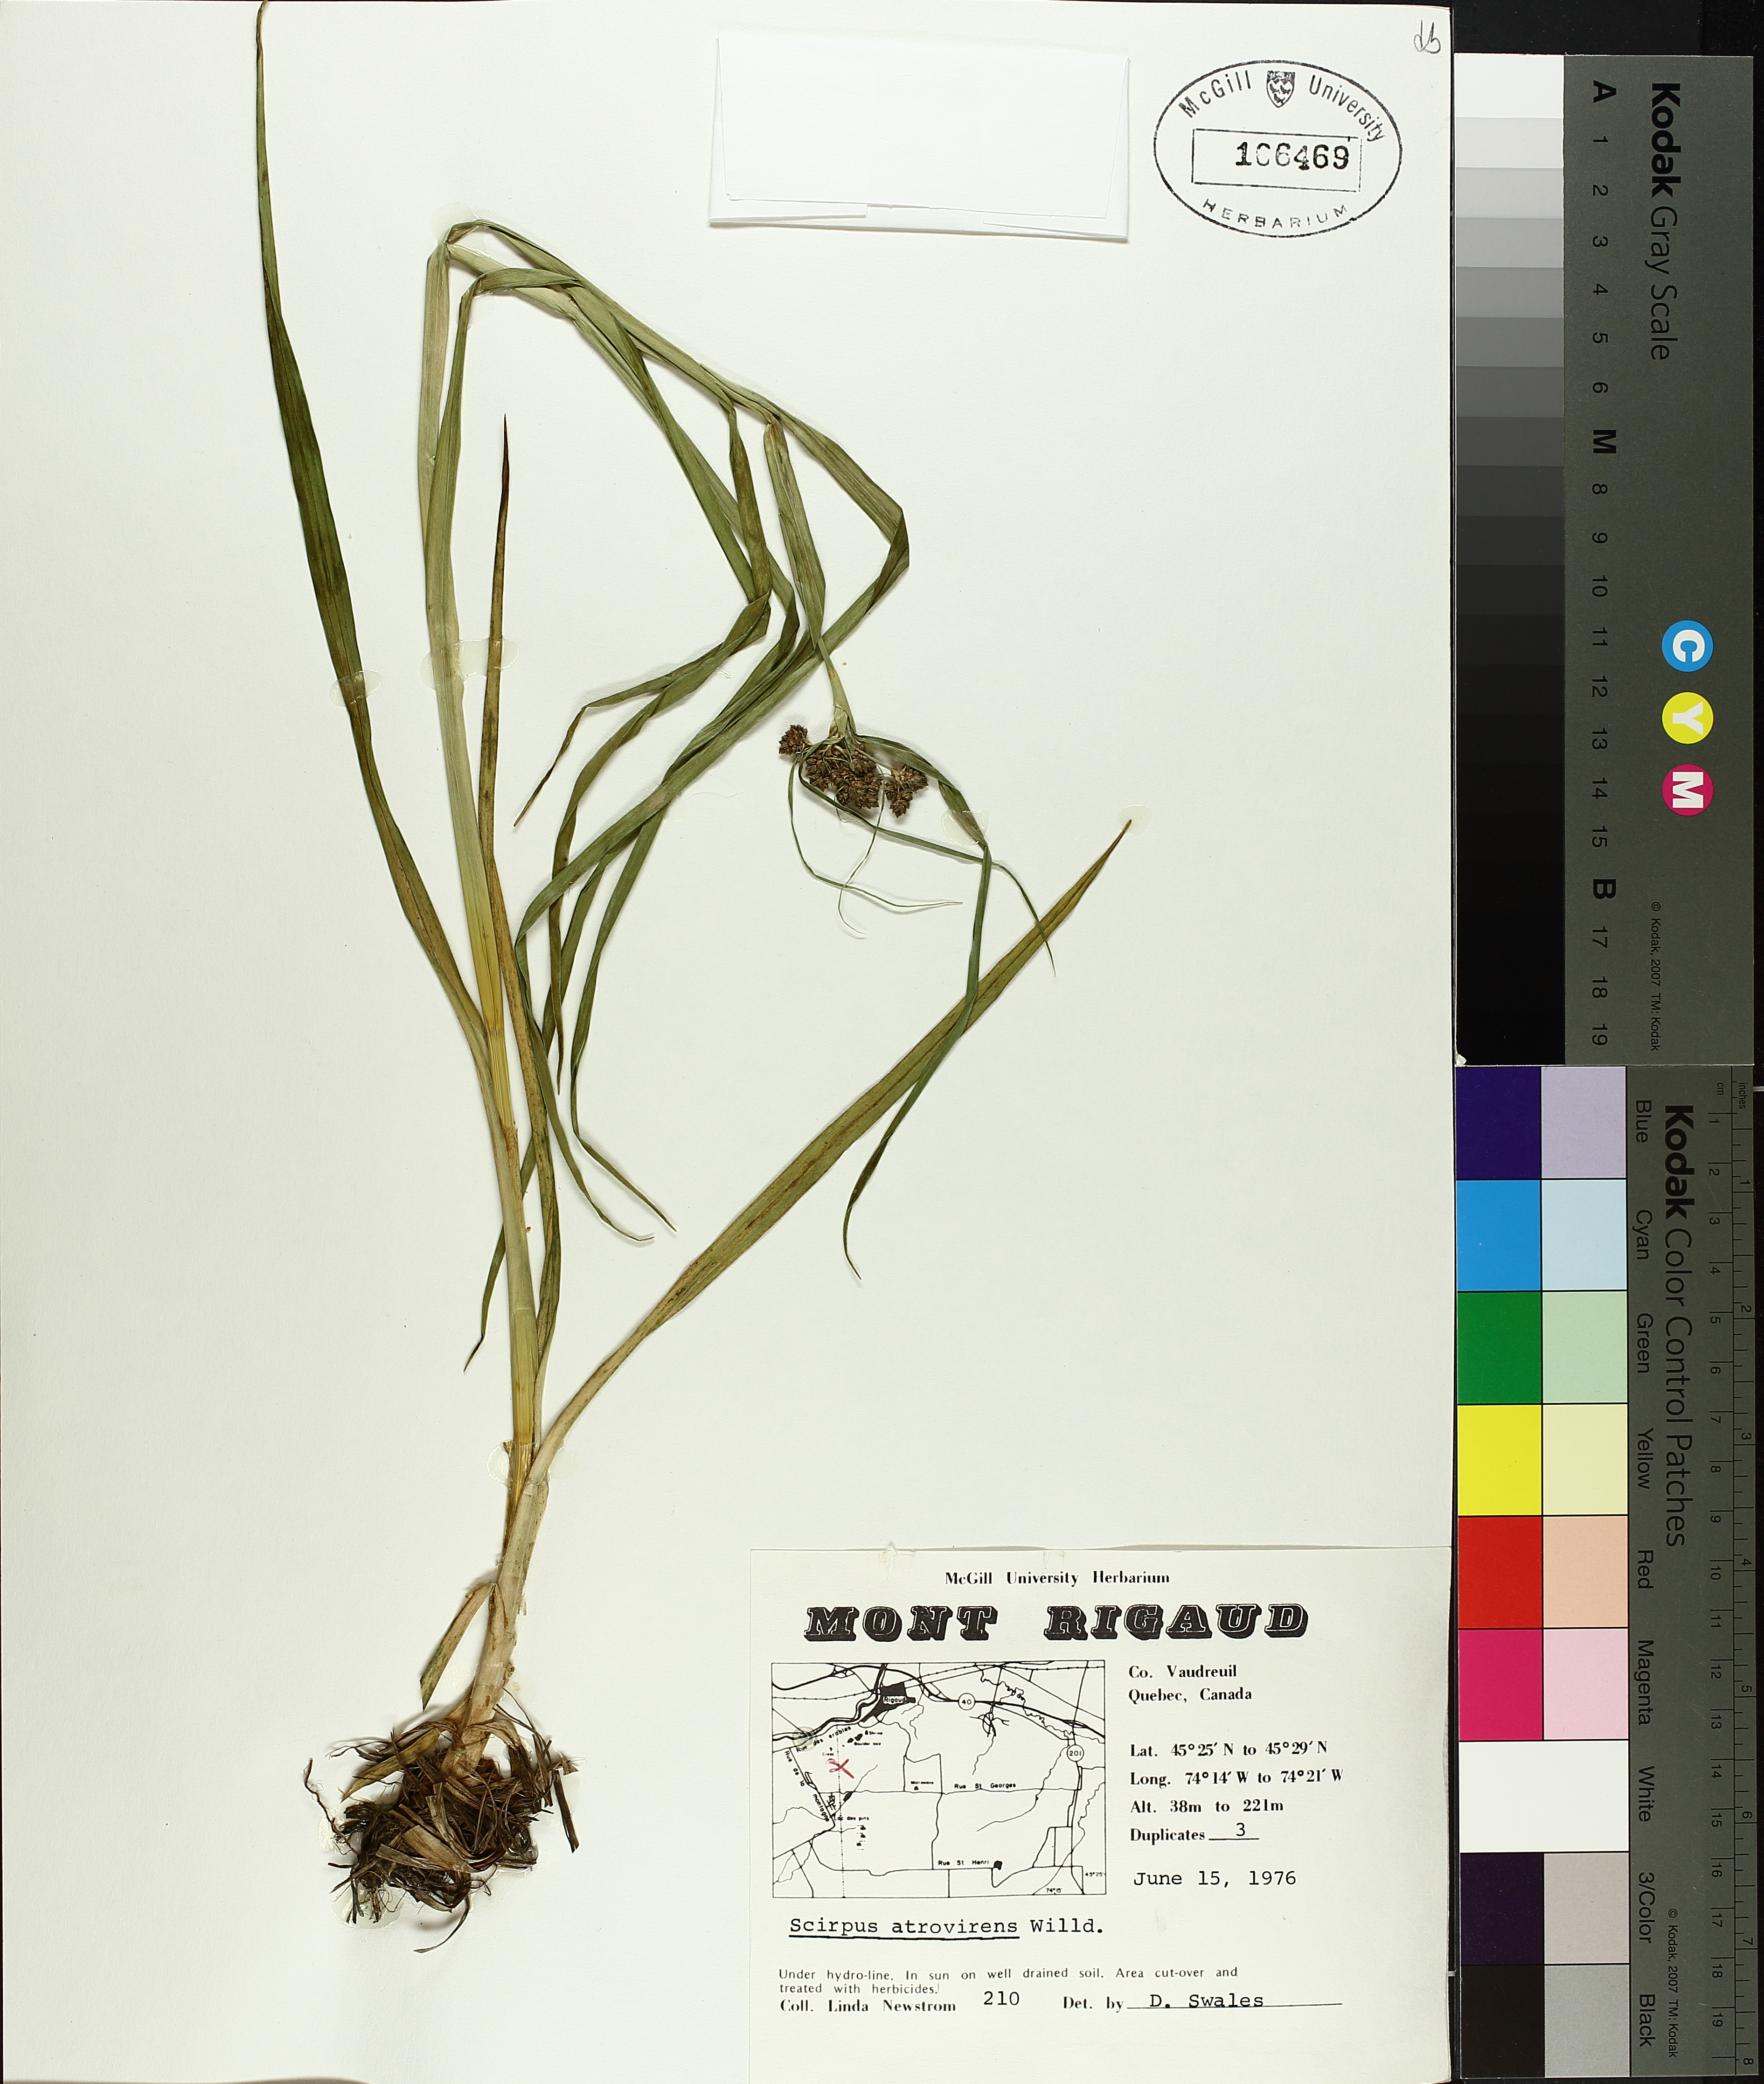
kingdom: Plantae
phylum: Tracheophyta
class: Liliopsida
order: Poales
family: Cyperaceae
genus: Scirpus
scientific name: Scirpus atrovirens
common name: Black bulrush
